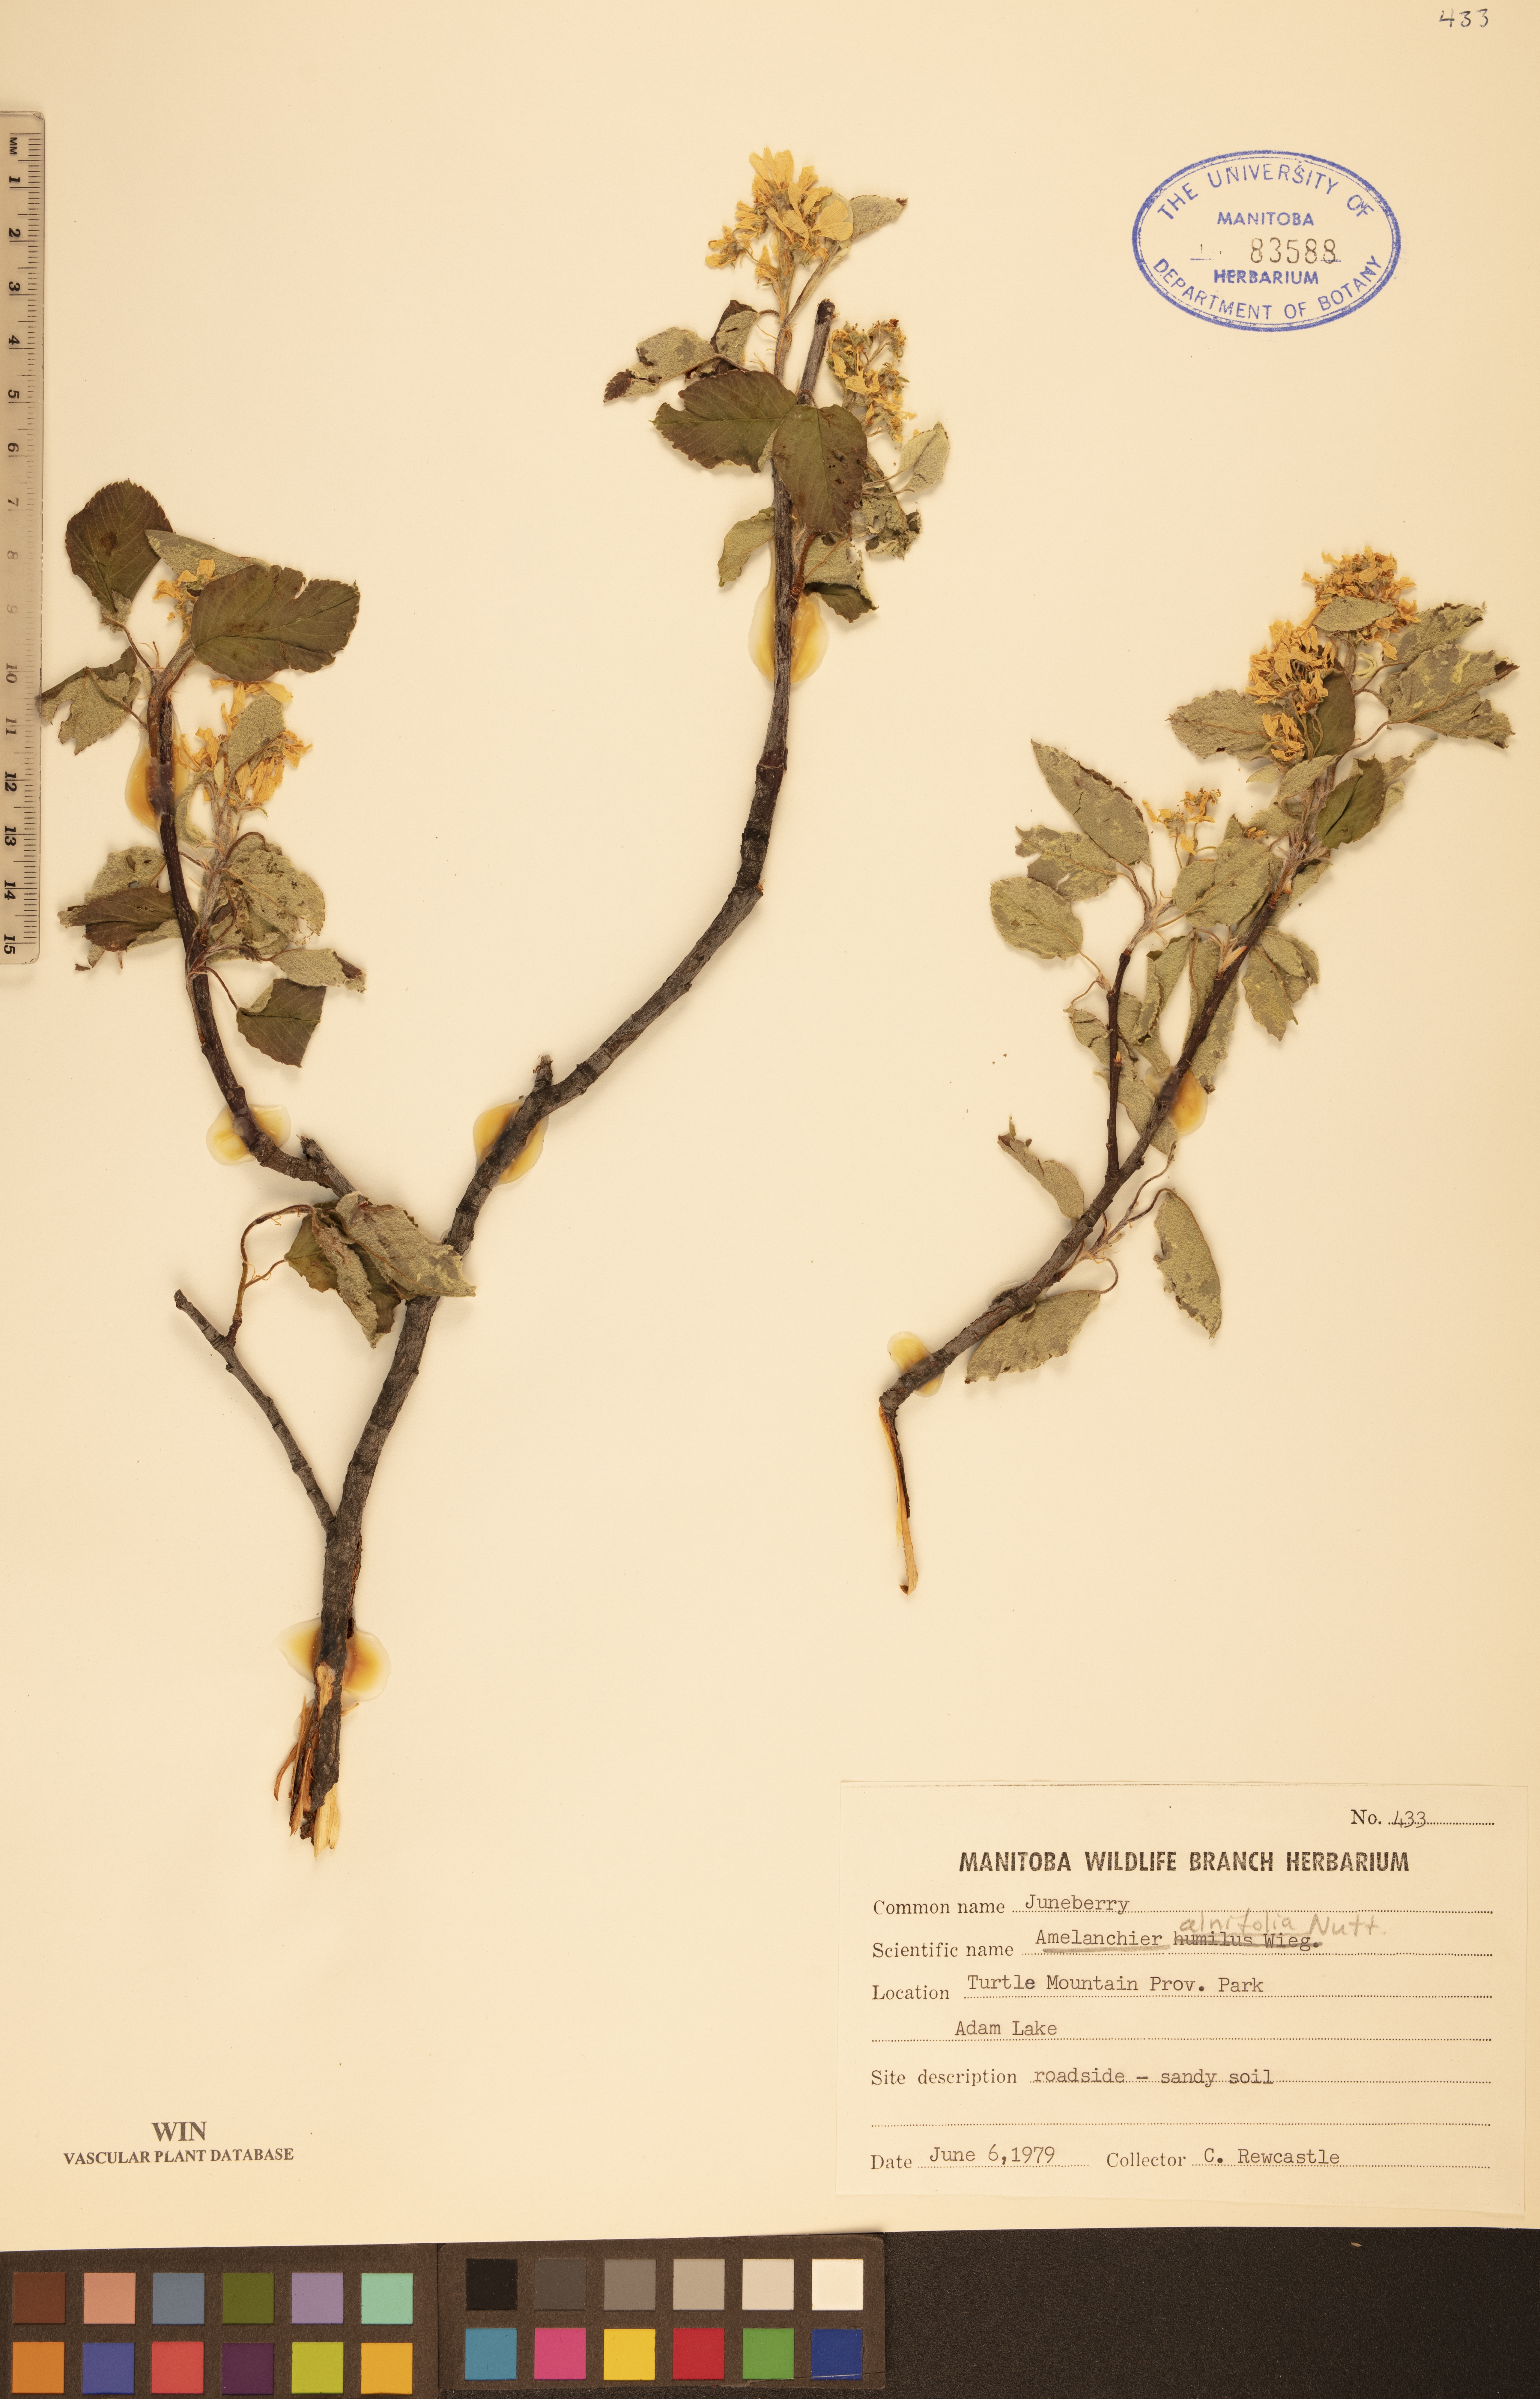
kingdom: Plantae
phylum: Tracheophyta
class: Magnoliopsida
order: Rosales
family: Rosaceae
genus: Amelanchier
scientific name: Amelanchier alnifolia
